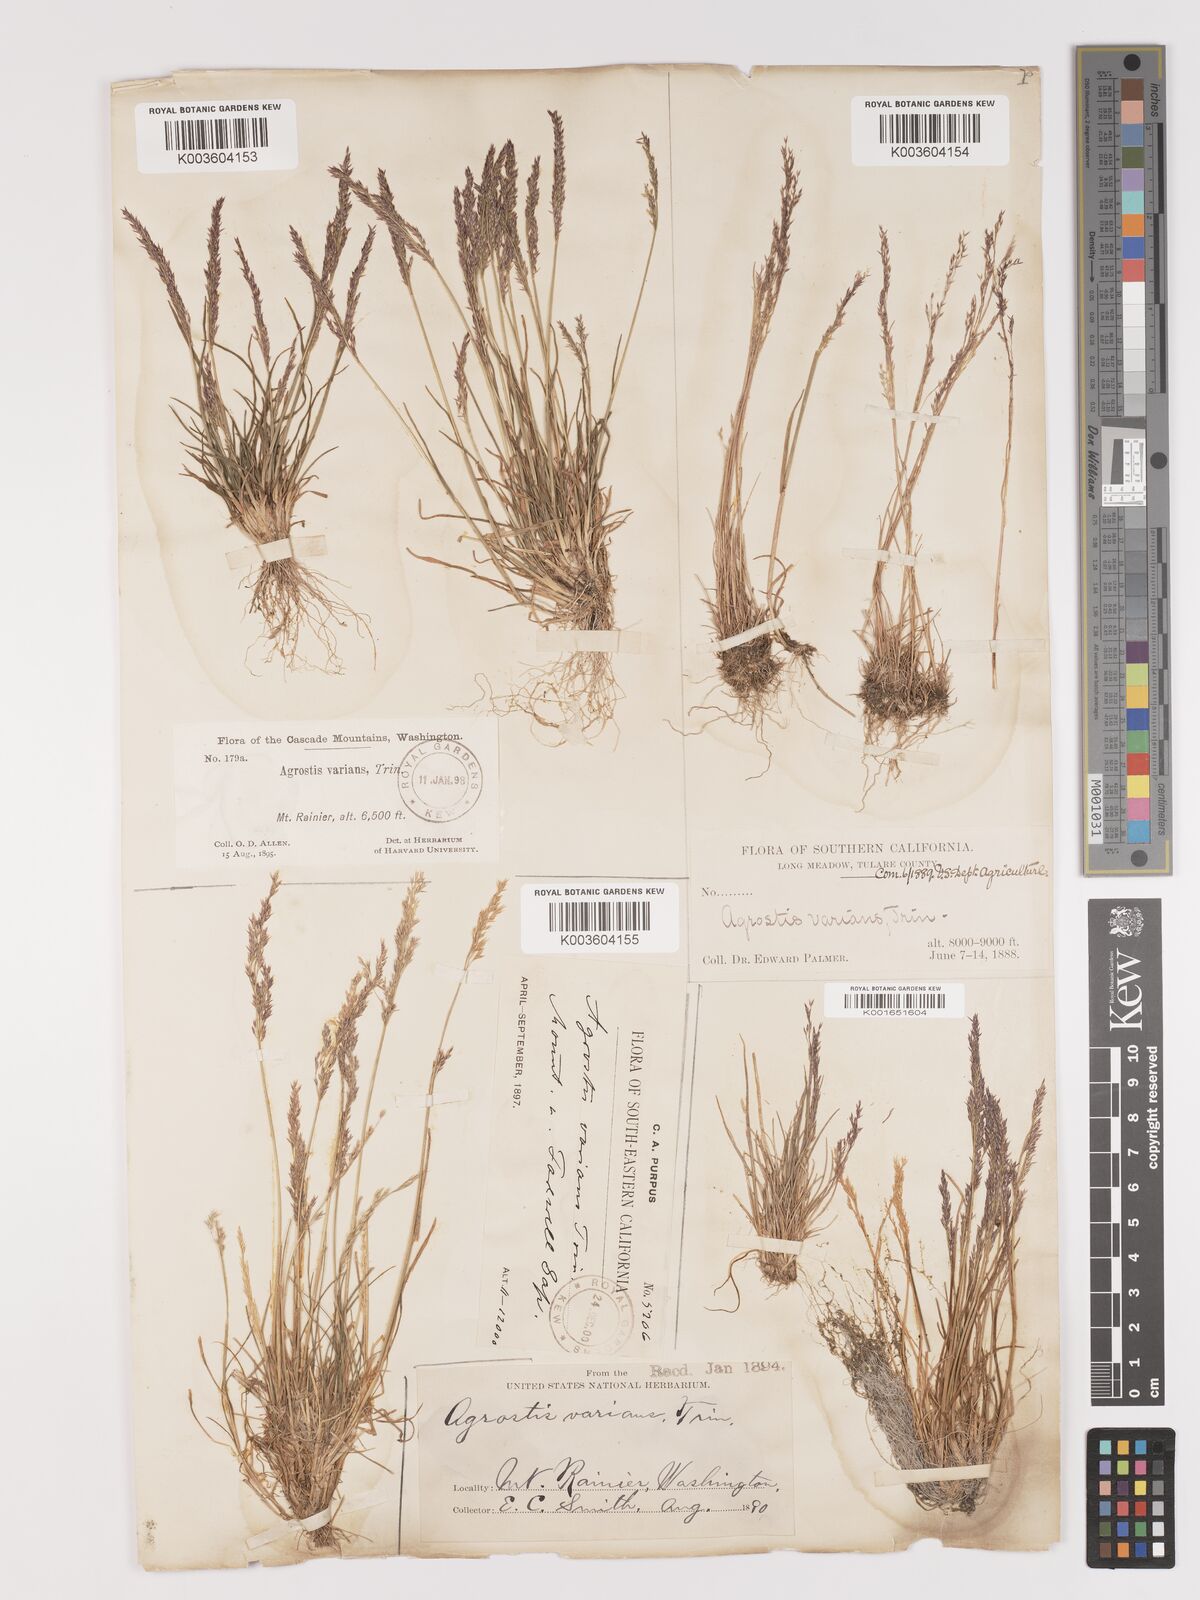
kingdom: Plantae
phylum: Tracheophyta
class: Liliopsida
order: Poales
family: Poaceae
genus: Agrostis
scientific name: Agrostis rossiae
